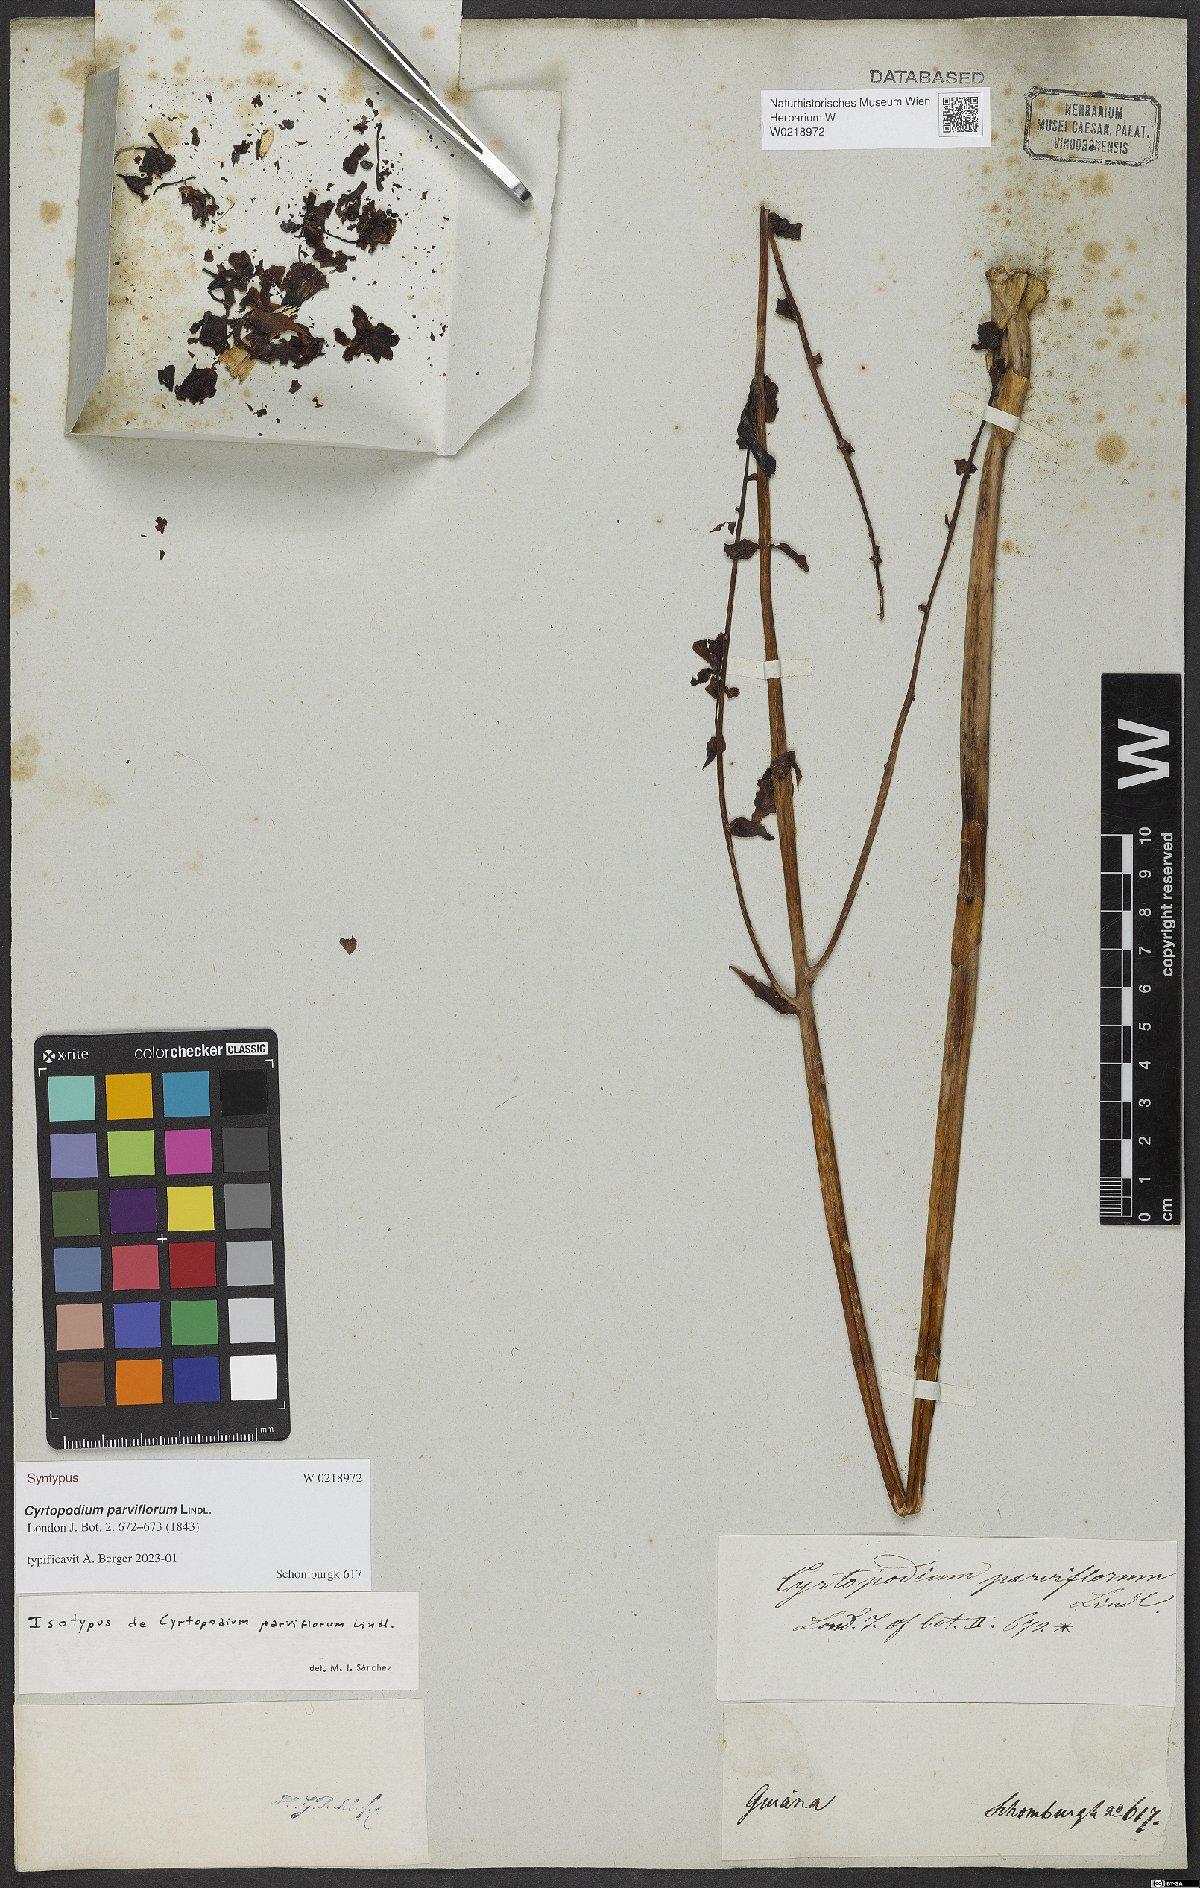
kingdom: Plantae
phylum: Tracheophyta
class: Liliopsida
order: Asparagales
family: Orchidaceae
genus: Cyrtopodium
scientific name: Cyrtopodium parviflorum
